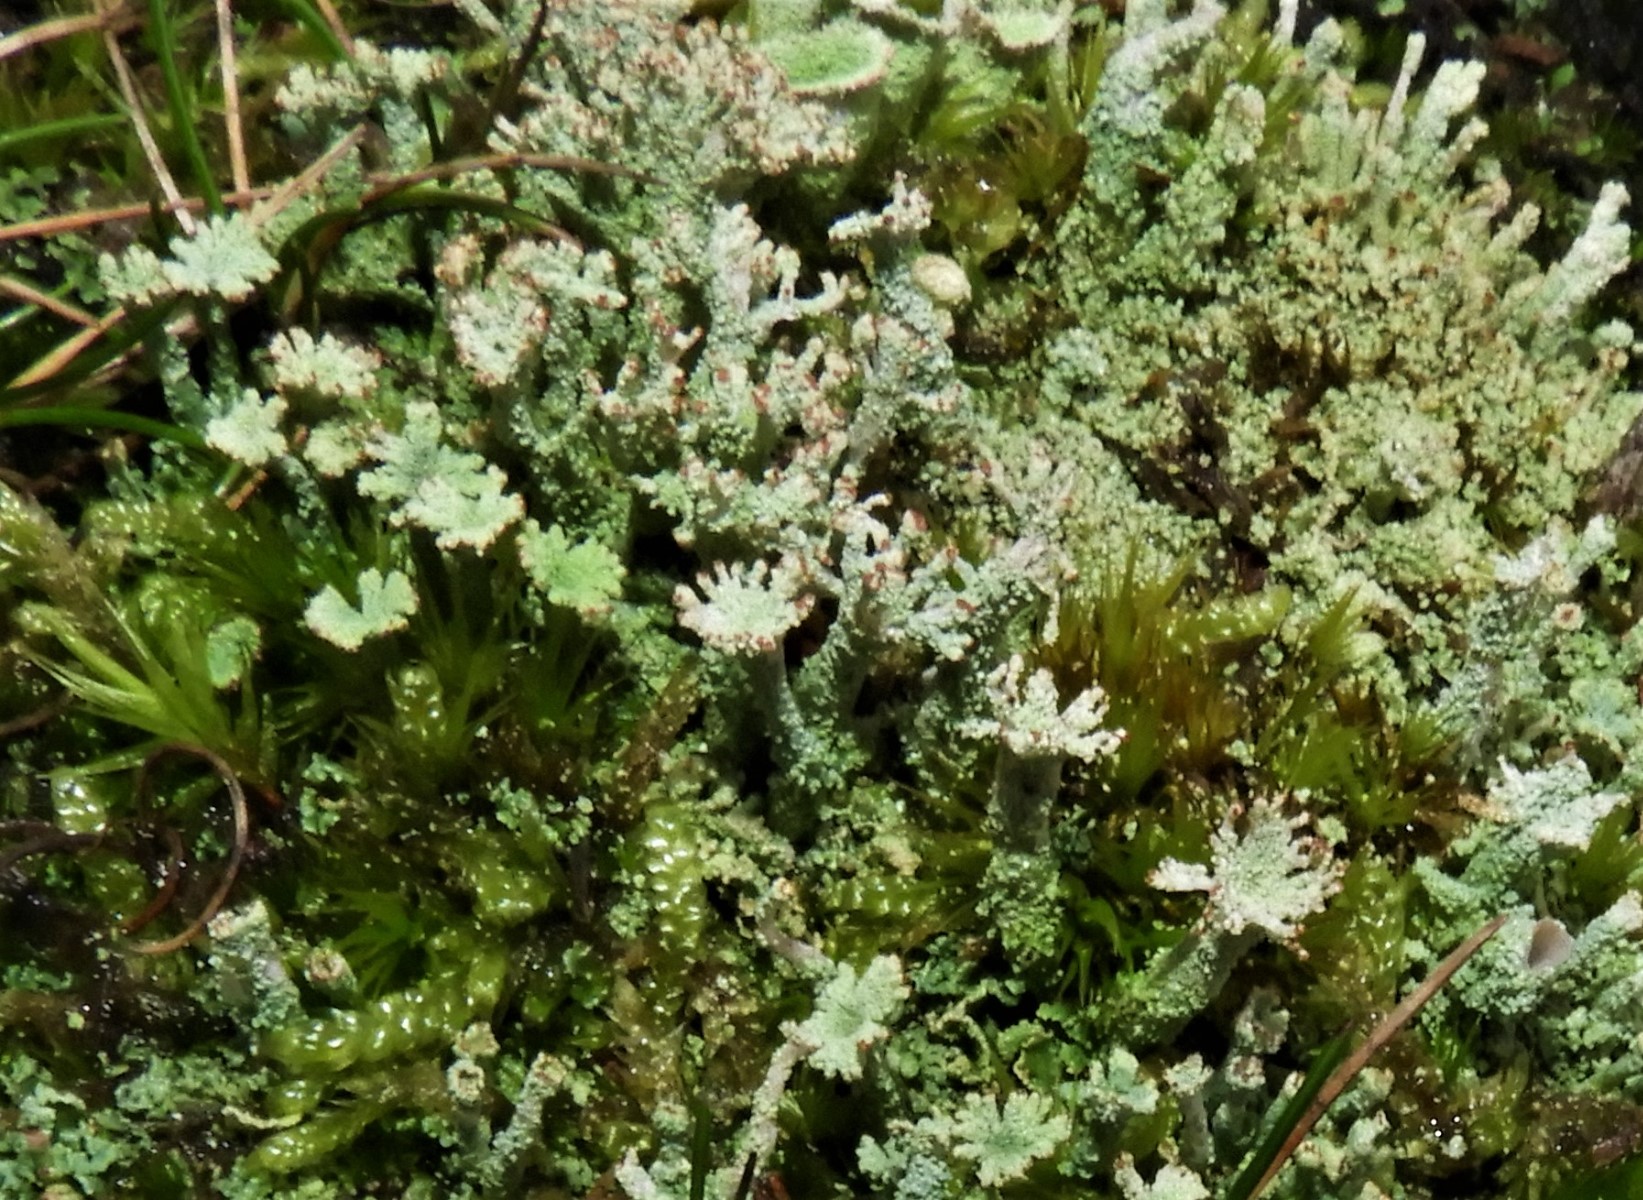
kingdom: Fungi
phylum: Ascomycota
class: Lecanoromycetes
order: Lecanorales
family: Cladoniaceae
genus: Cladonia
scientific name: Cladonia
